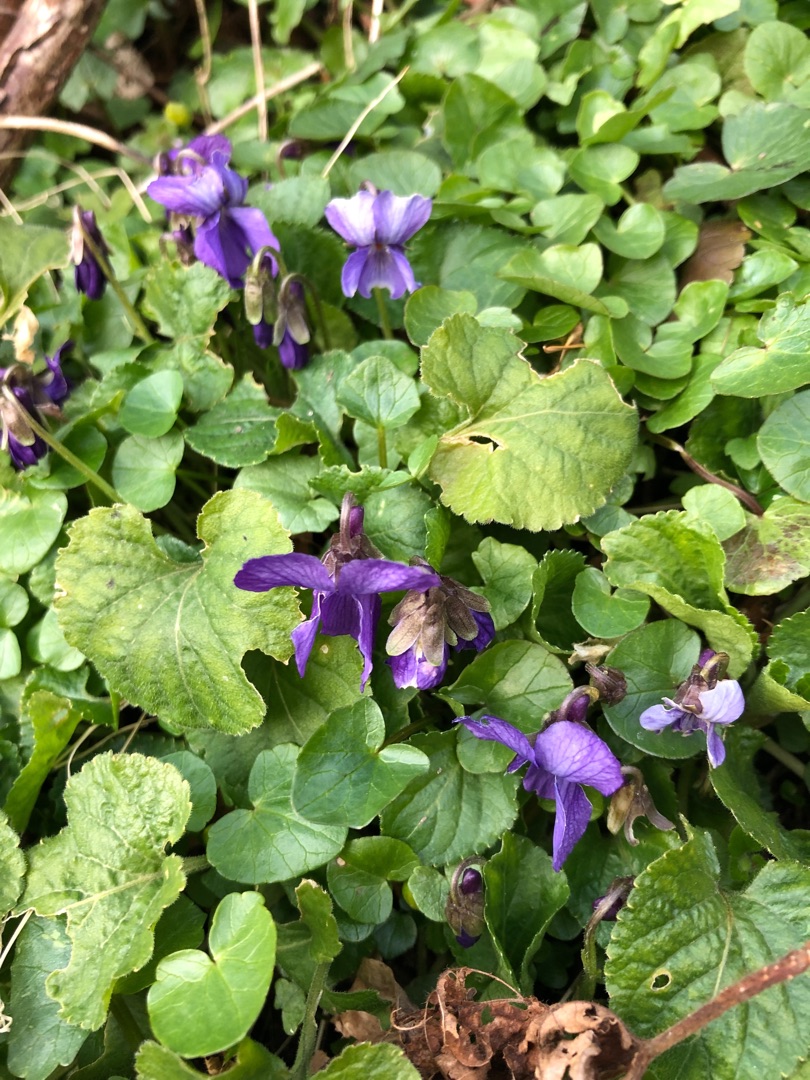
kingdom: Plantae
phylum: Tracheophyta
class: Magnoliopsida
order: Malpighiales
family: Violaceae
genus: Viola
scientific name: Viola odorata
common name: Marts-viol
